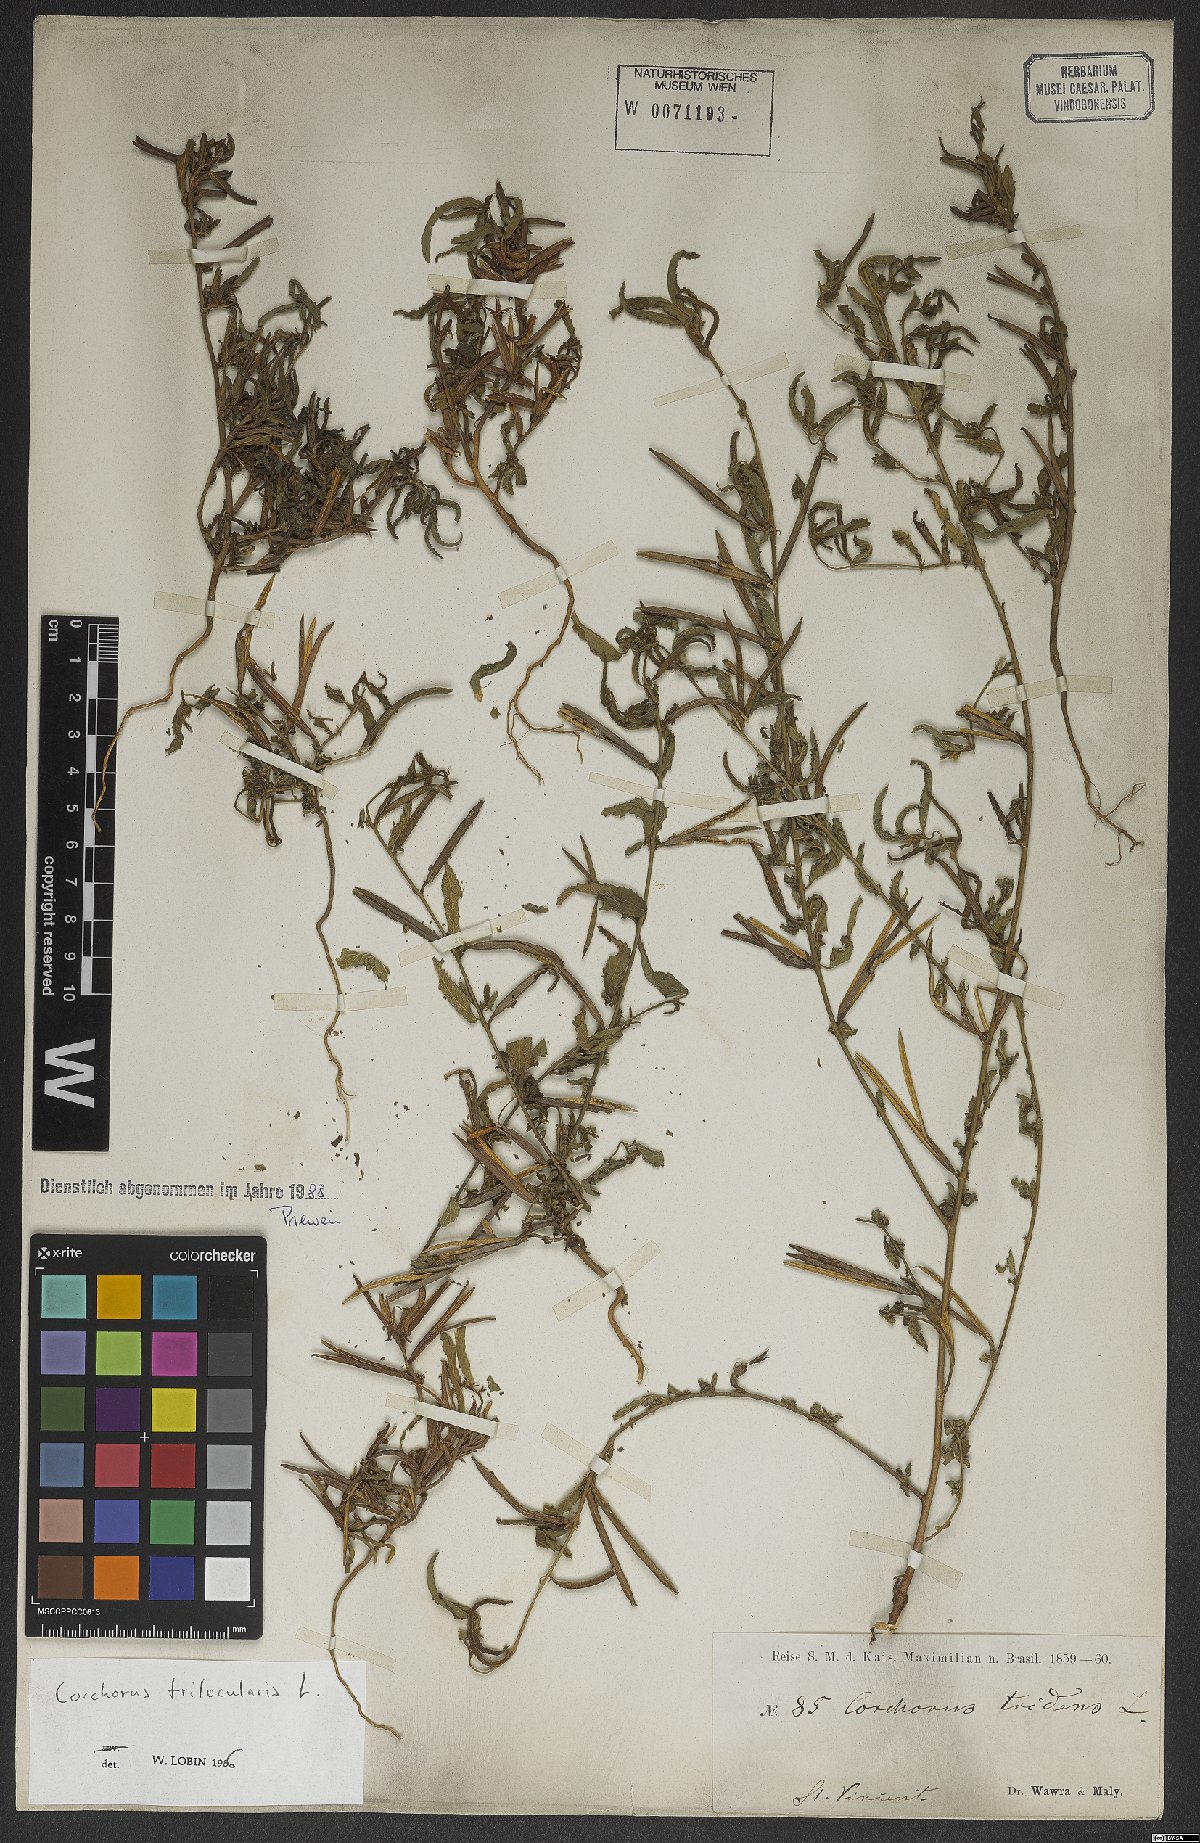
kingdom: Plantae
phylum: Tracheophyta
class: Magnoliopsida
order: Malvales
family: Malvaceae
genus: Corchorus
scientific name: Corchorus trilocularis
